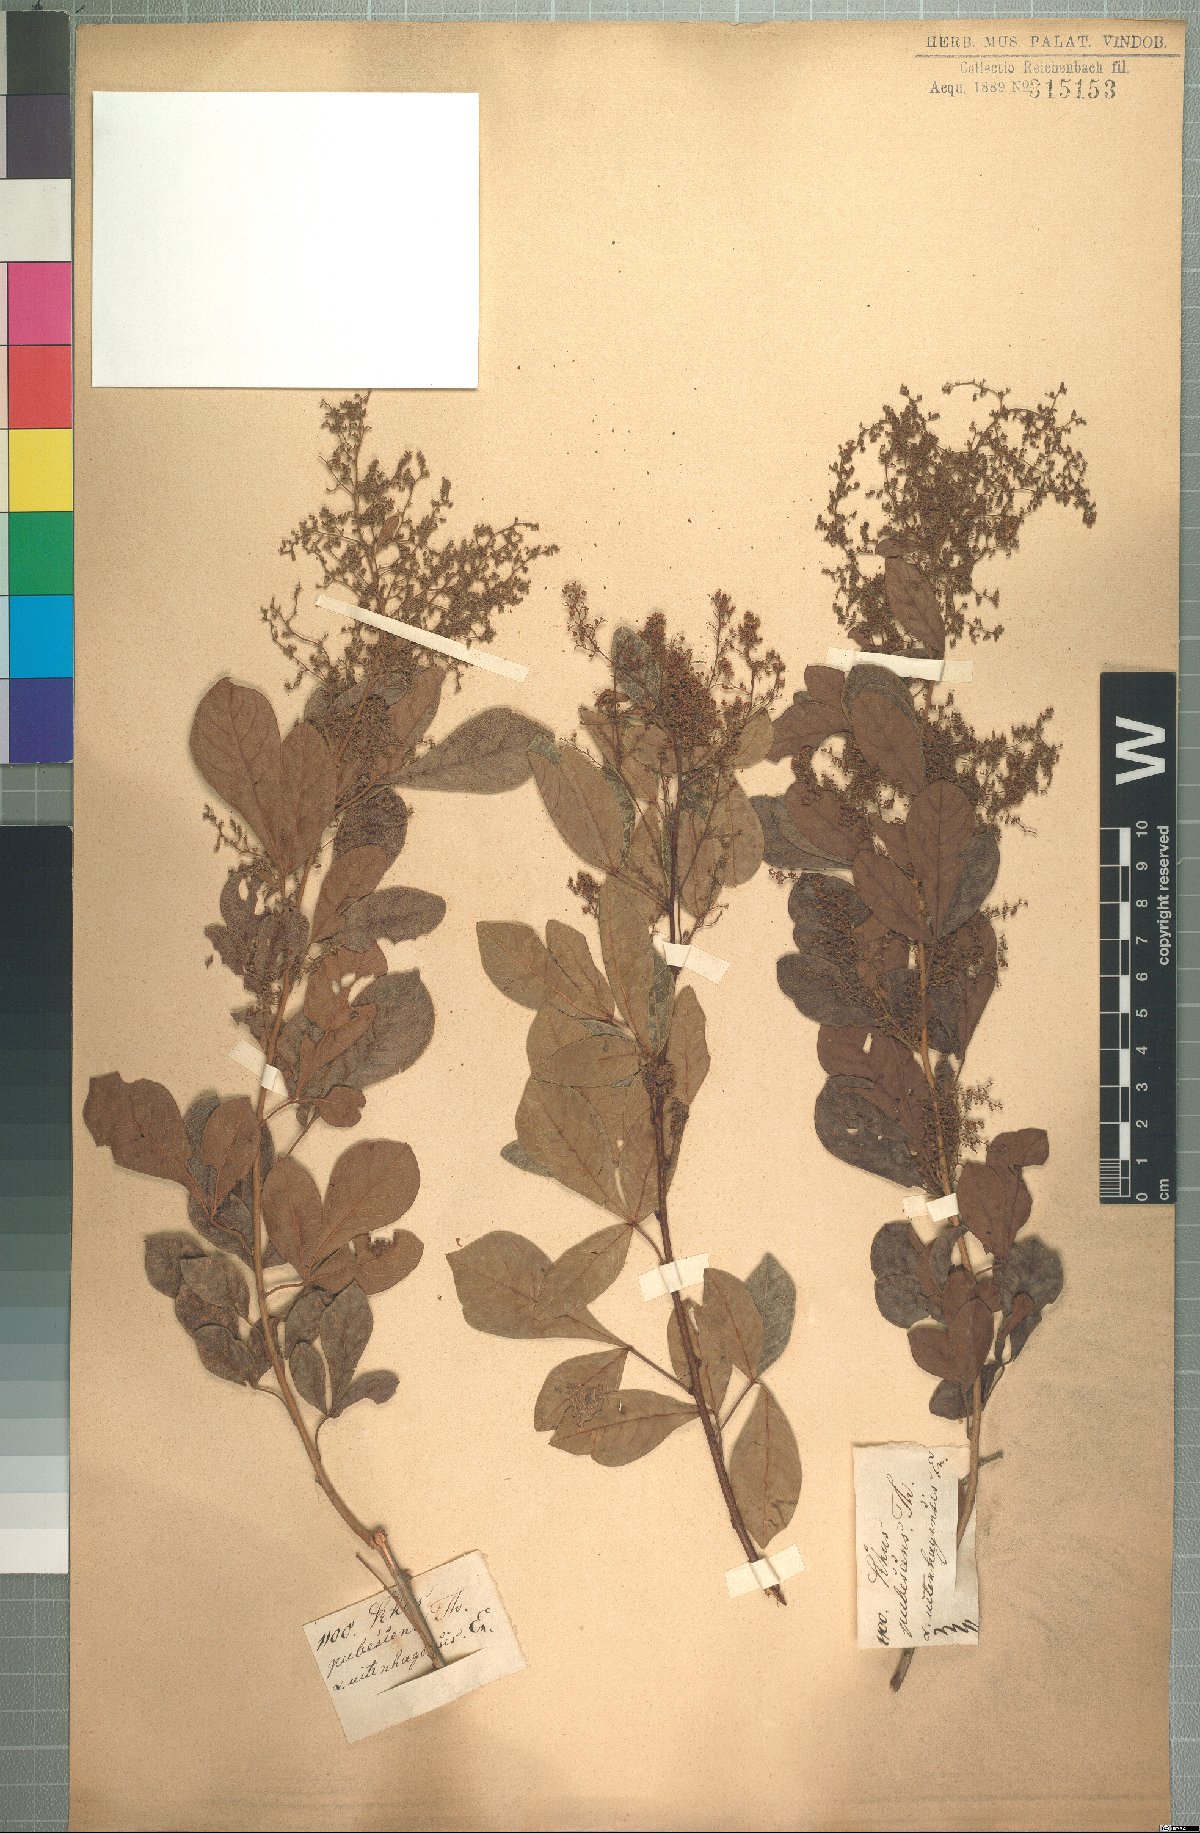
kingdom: Plantae
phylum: Tracheophyta
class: Magnoliopsida
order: Sapindales
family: Anacardiaceae
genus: Searsia
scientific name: Searsia rehmanniana
